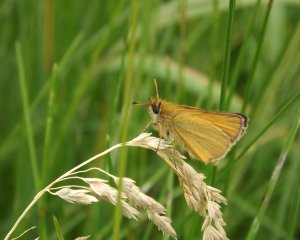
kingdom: Animalia
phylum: Arthropoda
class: Insecta
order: Lepidoptera
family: Hesperiidae
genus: Thymelicus
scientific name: Thymelicus lineola
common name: European Skipper
